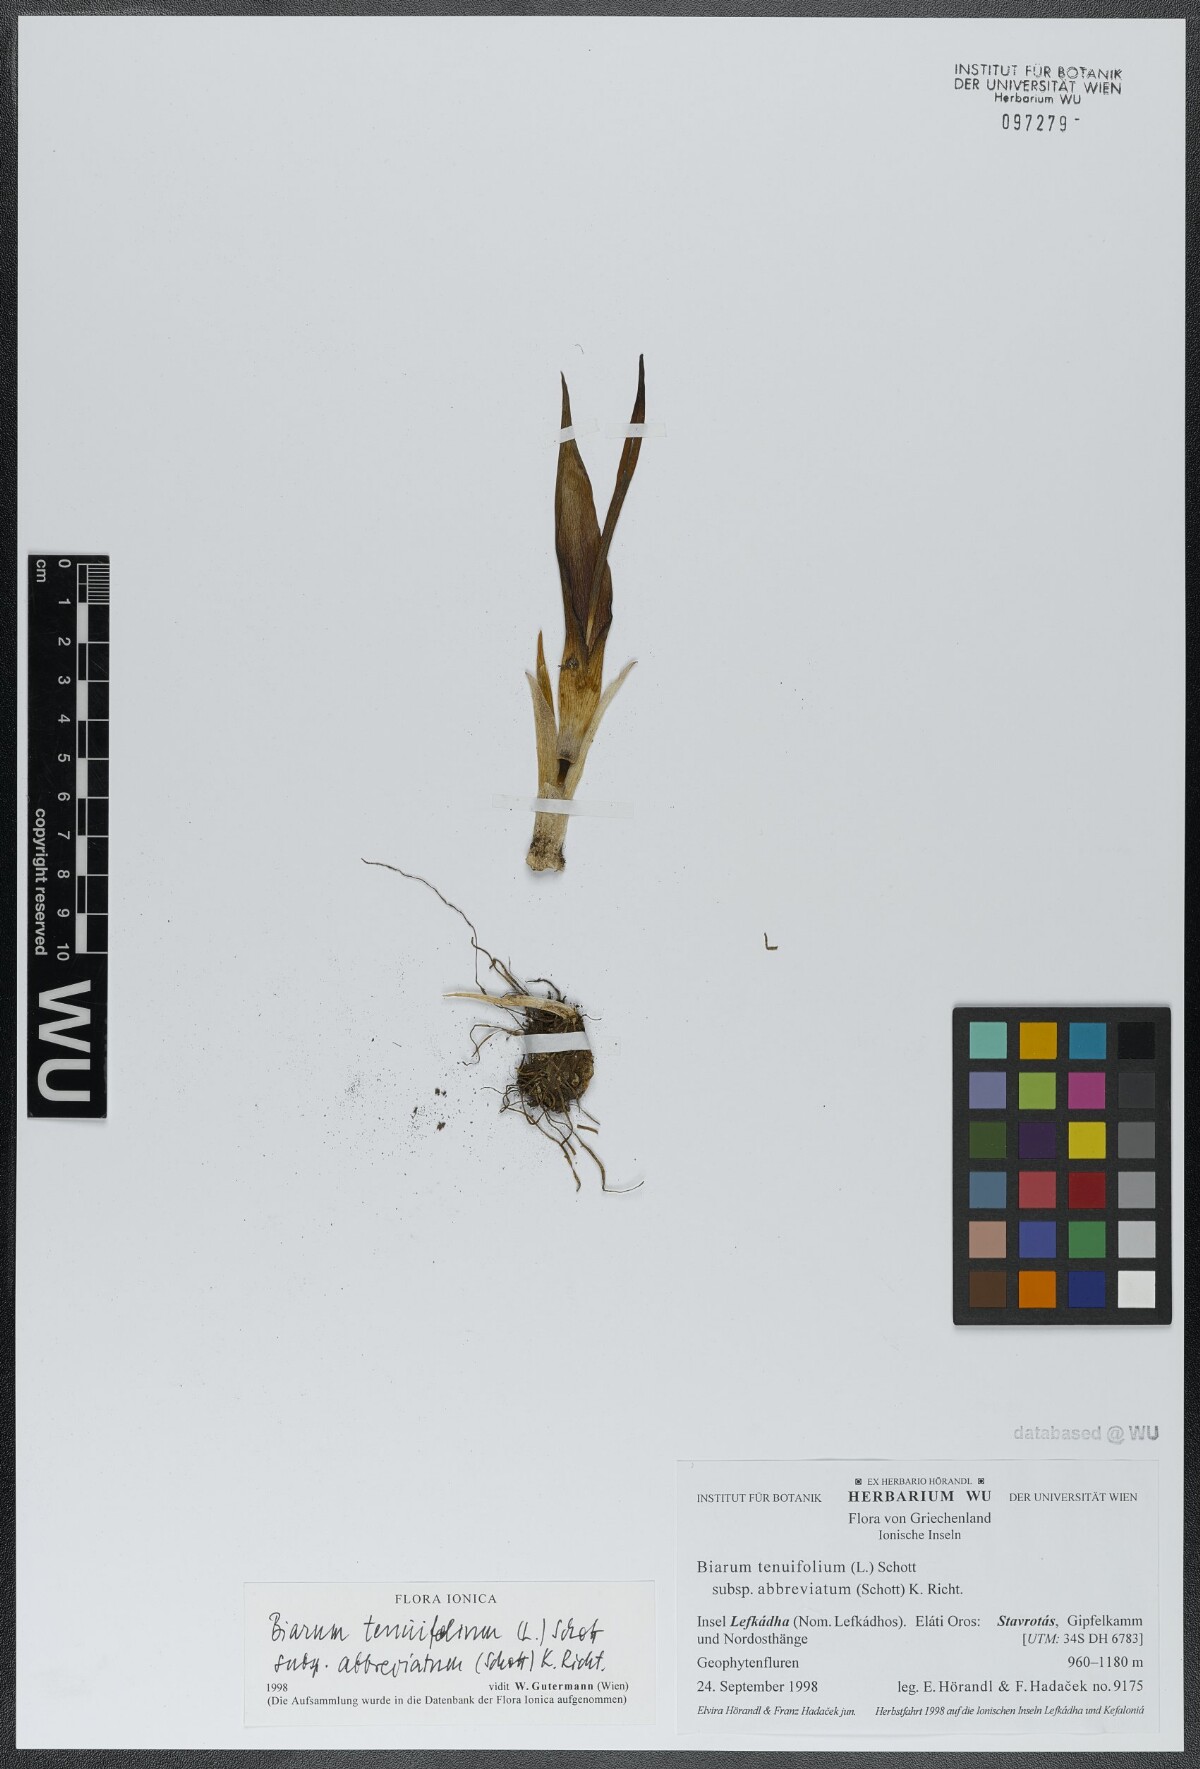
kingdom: Plantae
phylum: Tracheophyta
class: Liliopsida
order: Alismatales
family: Araceae
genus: Biarum
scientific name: Biarum tenuifolium
